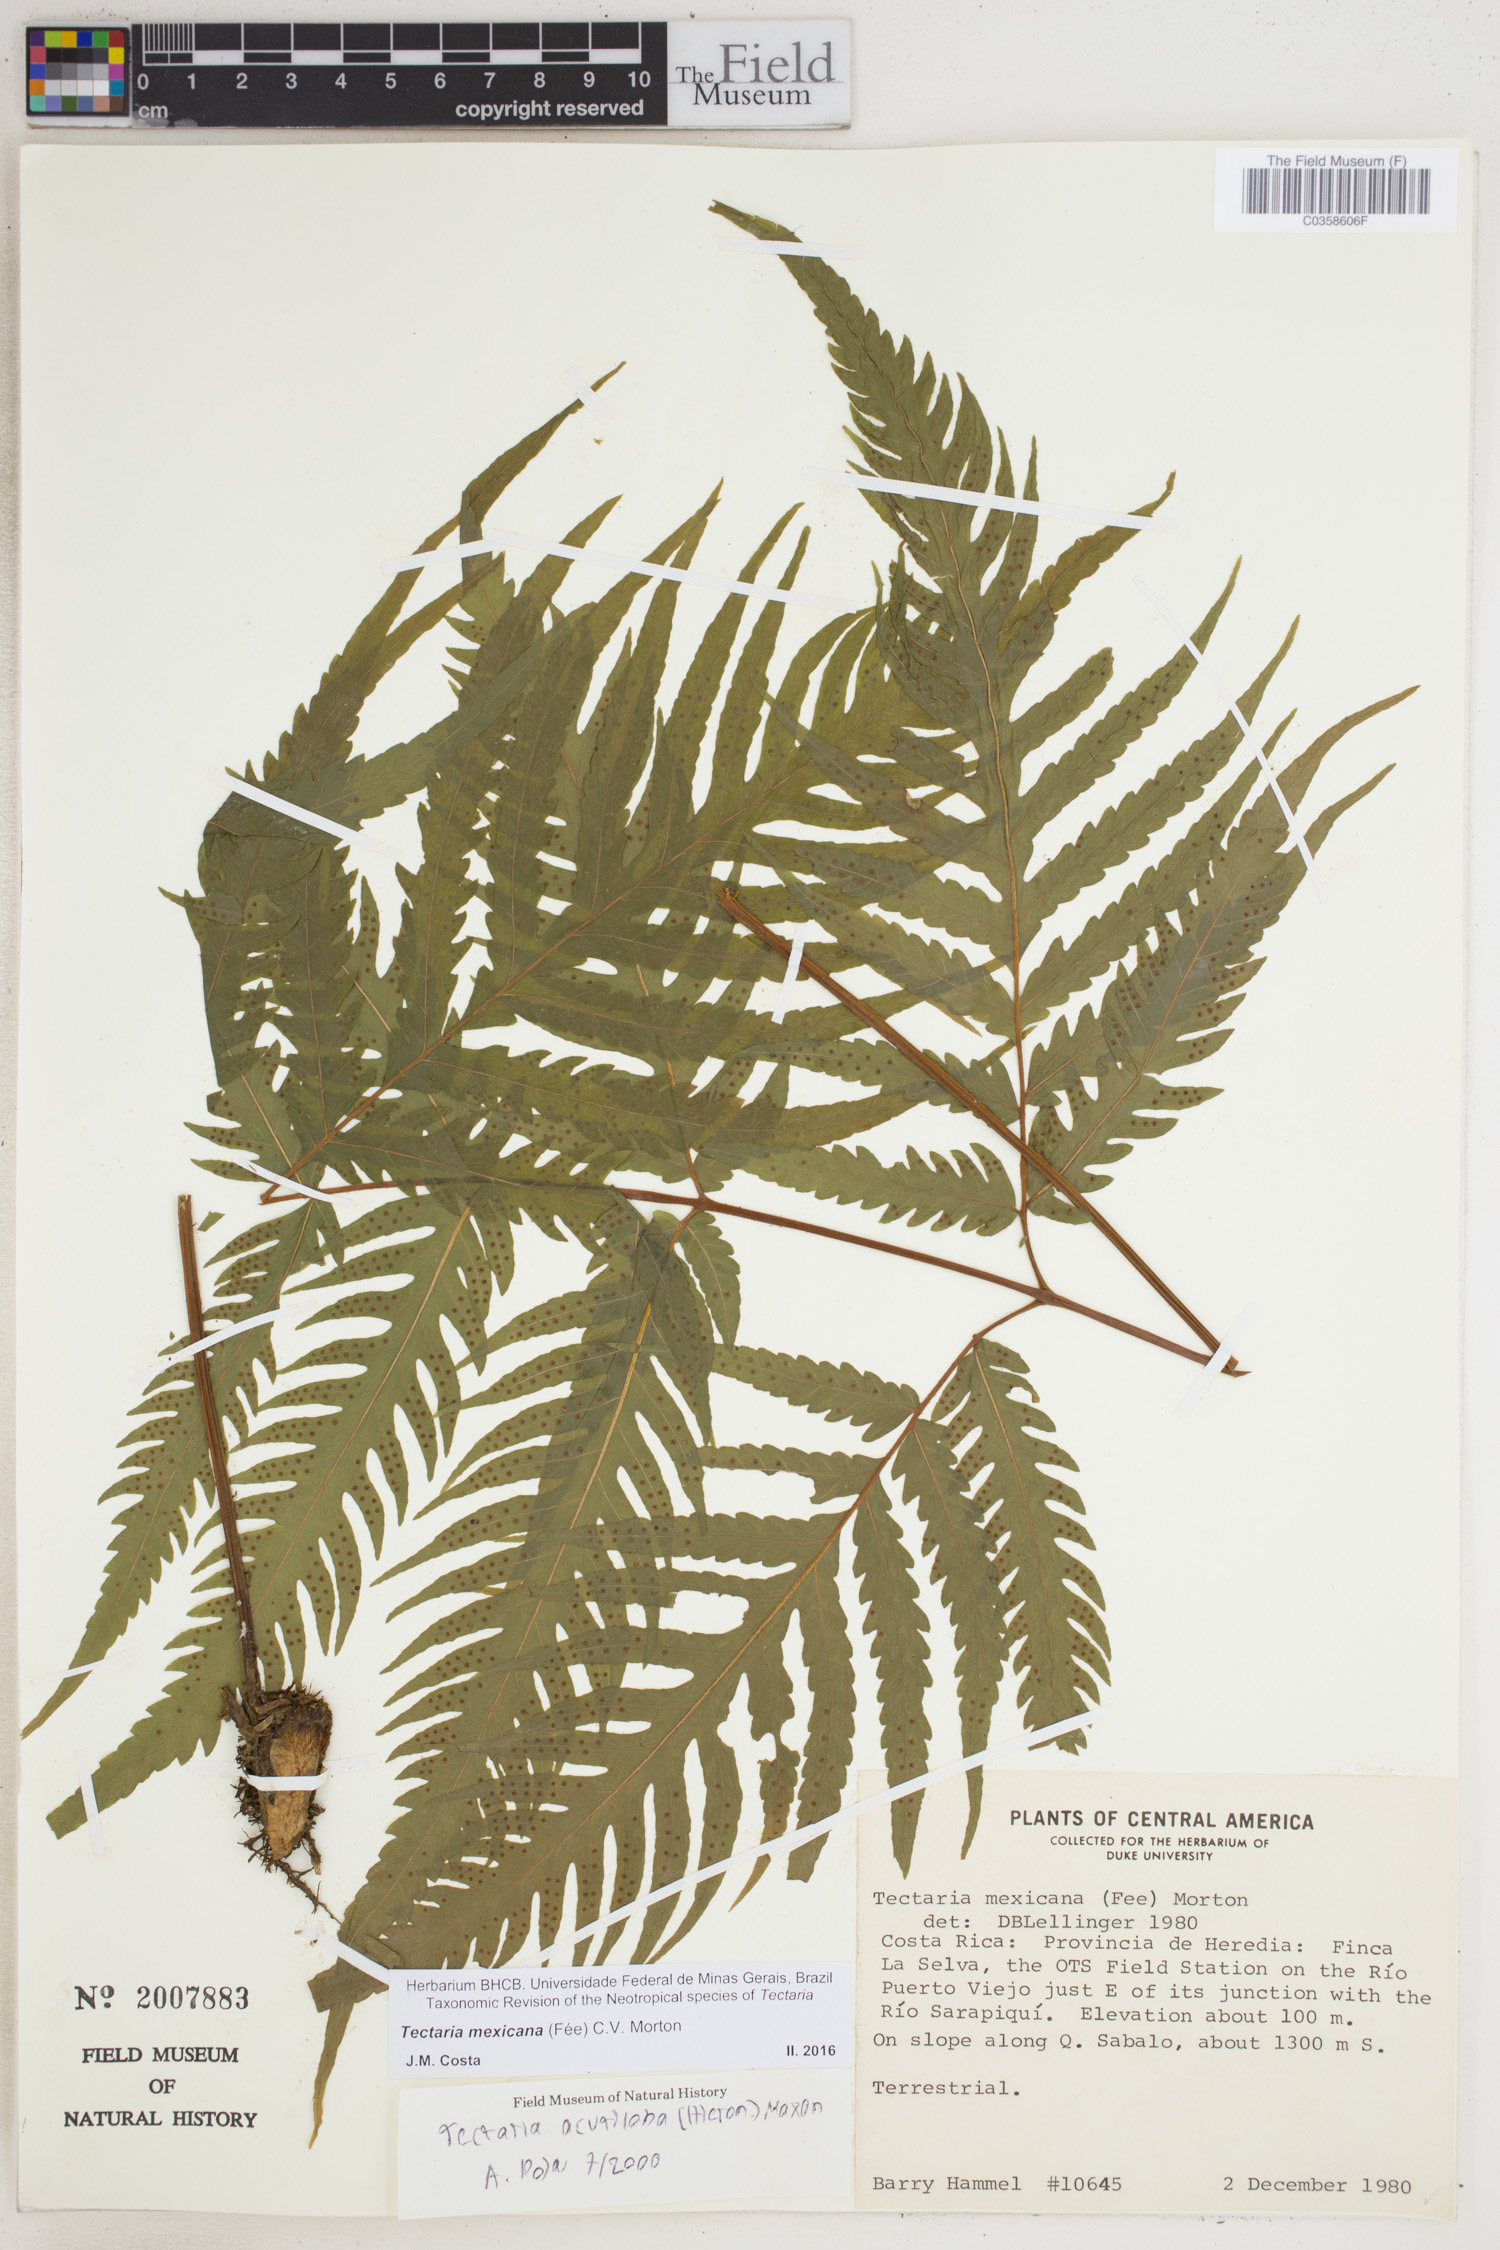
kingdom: Plantae
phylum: Tracheophyta
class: Polypodiopsida
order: Polypodiales
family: Tectariaceae
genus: Tectaria
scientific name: Tectaria mexicana
